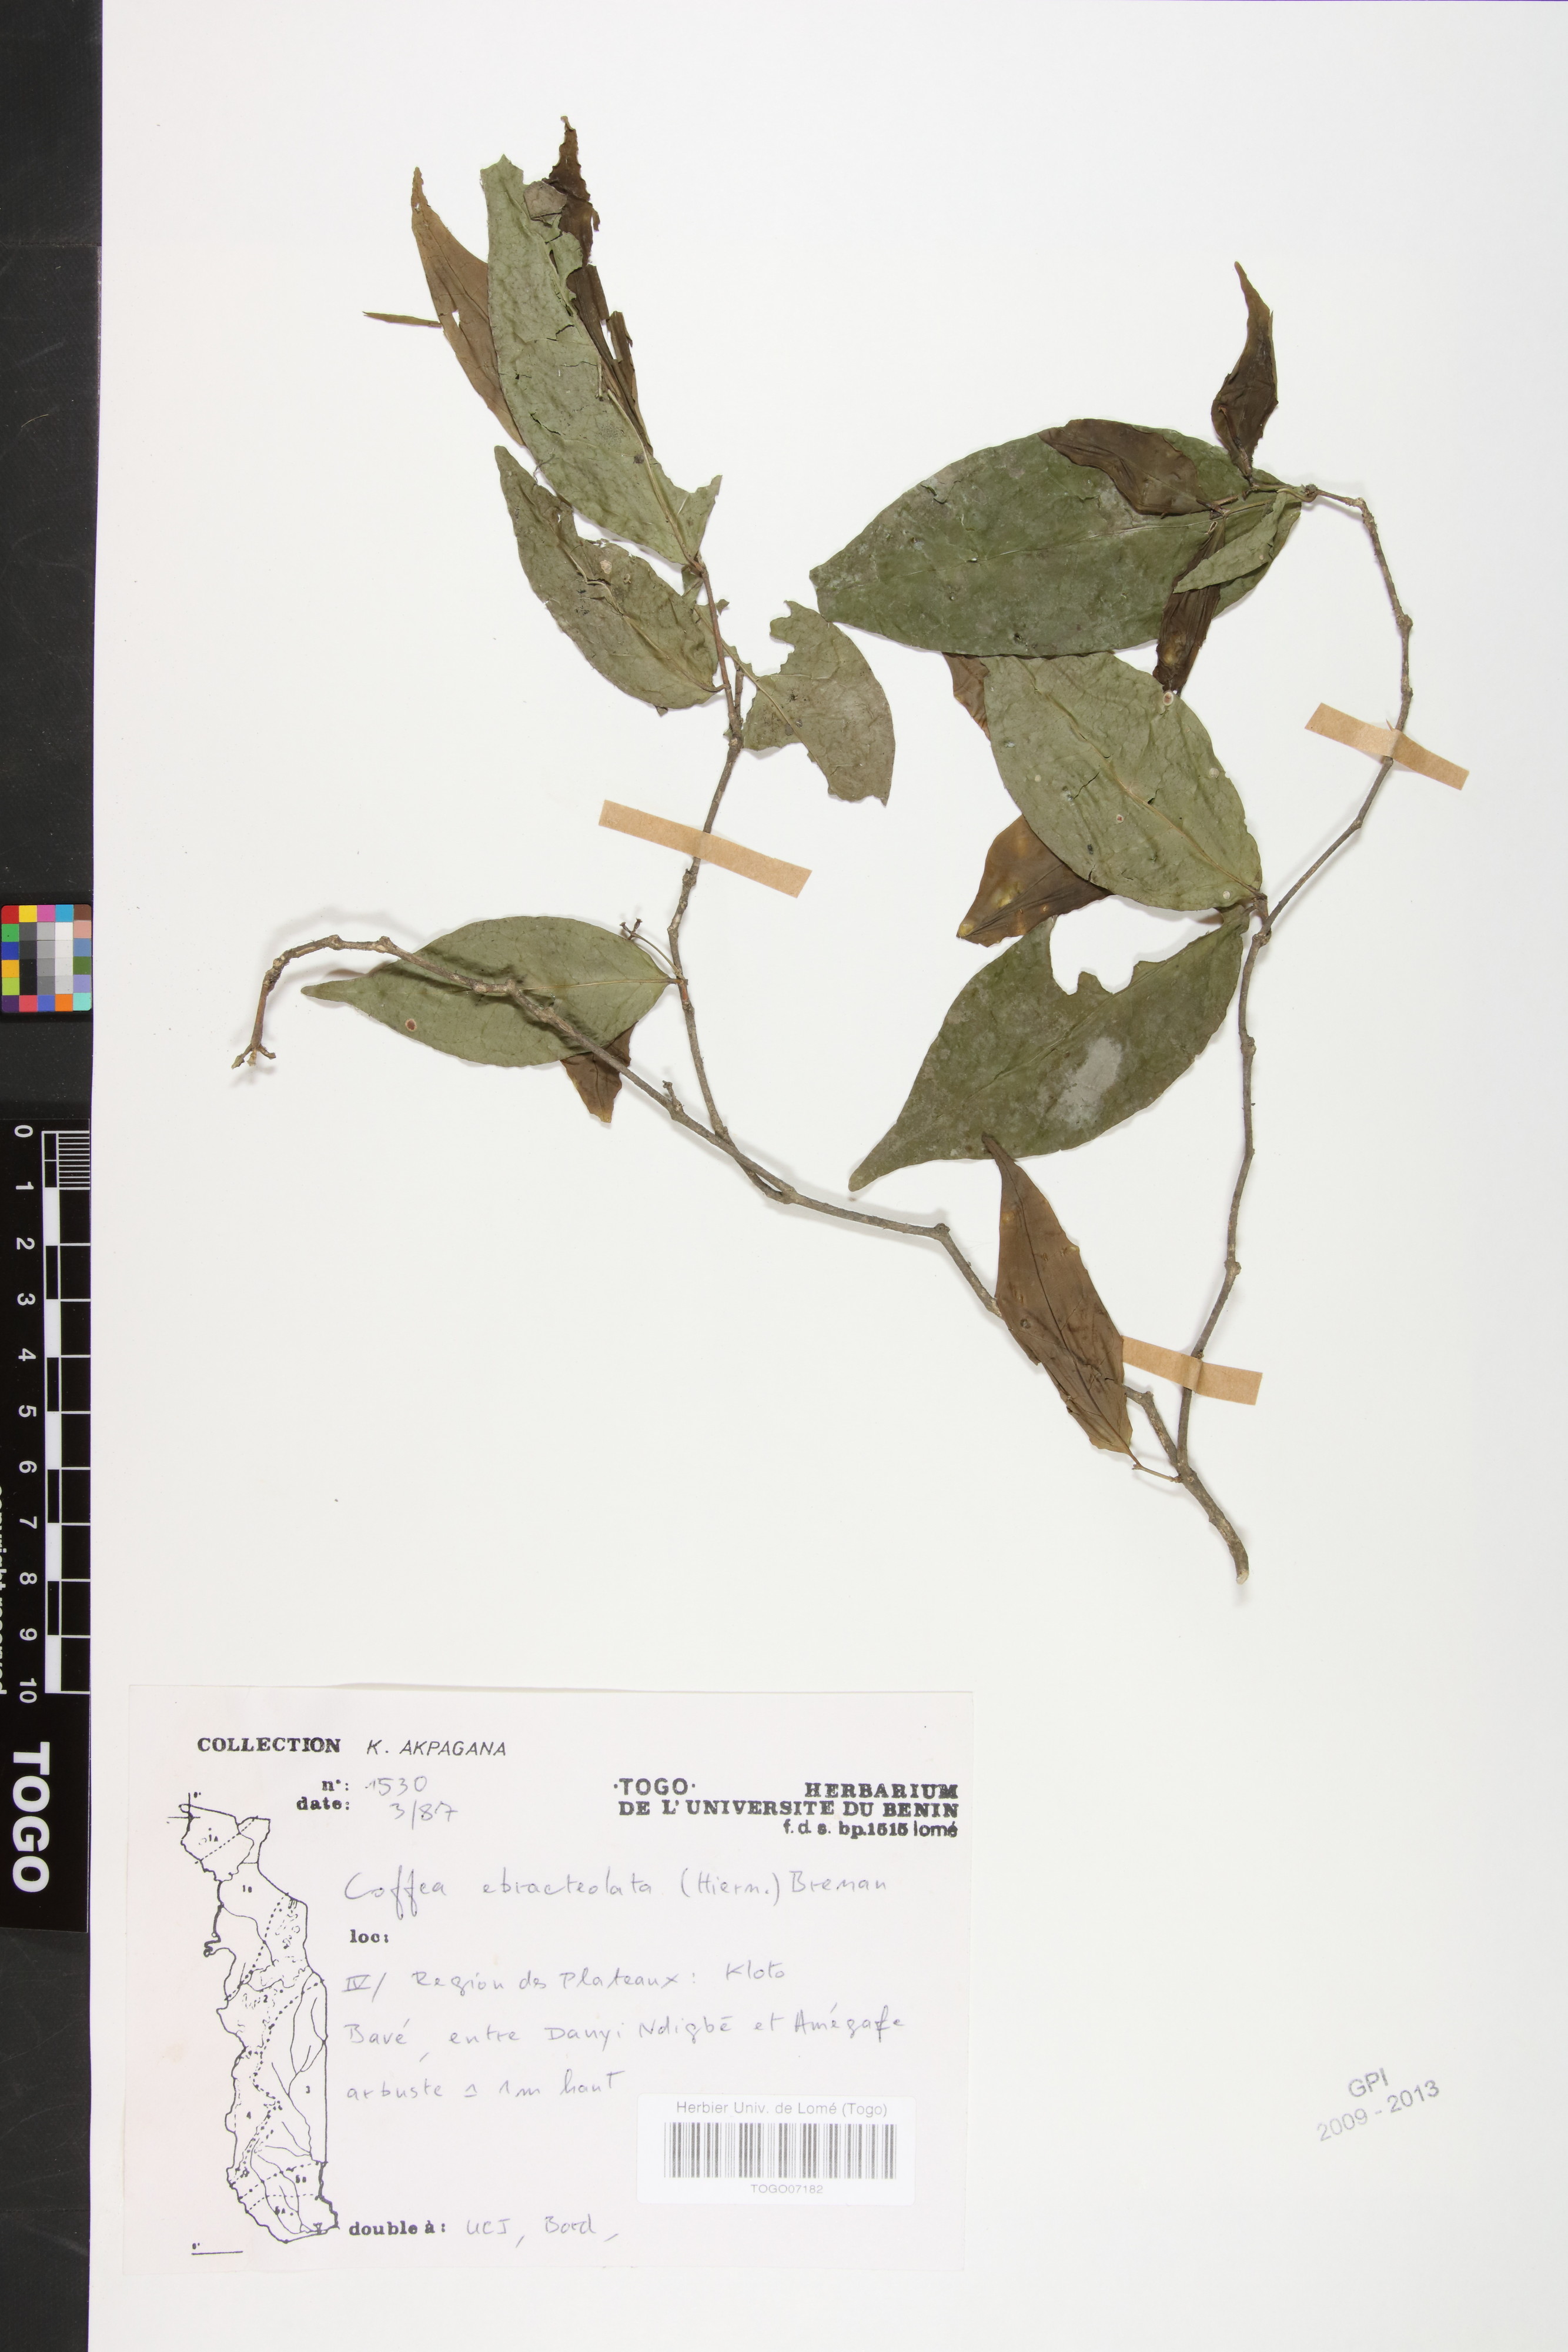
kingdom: Plantae
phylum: Tracheophyta
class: Magnoliopsida
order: Gentianales
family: Rubiaceae
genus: Coffea
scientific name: Coffea ebracteolata
